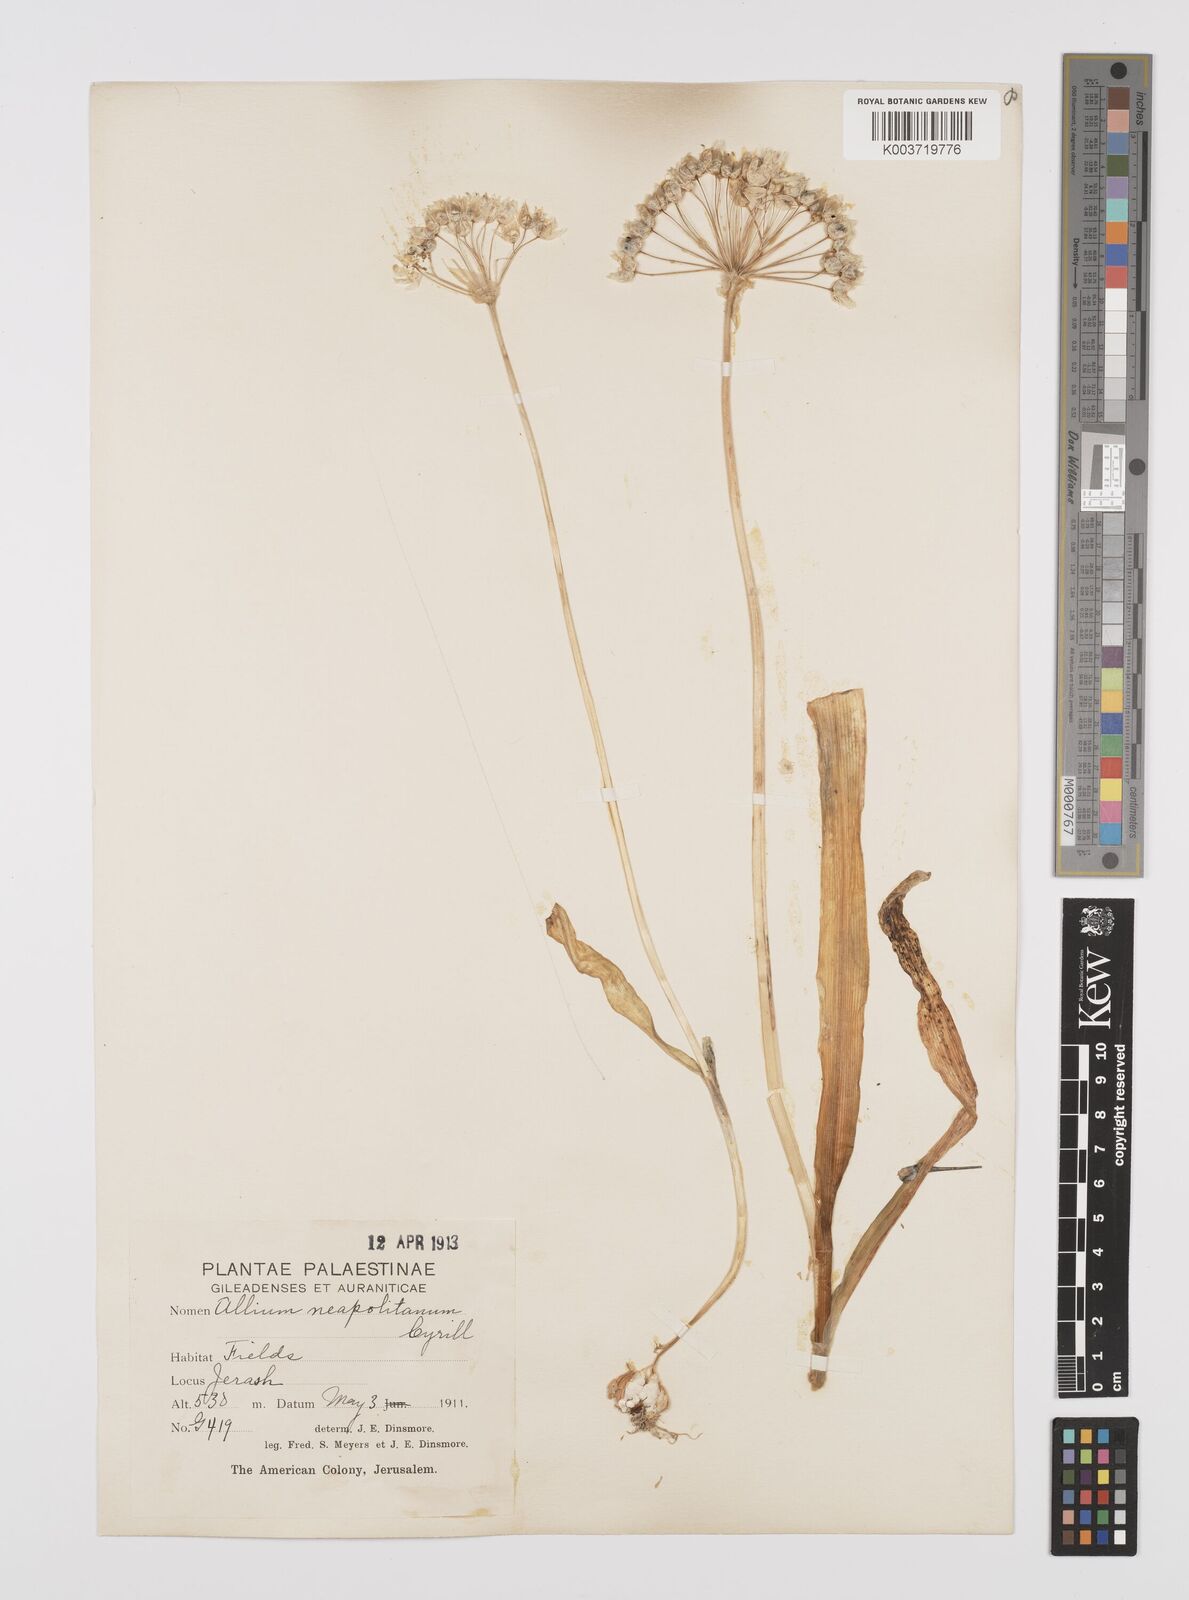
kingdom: Plantae
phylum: Tracheophyta
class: Liliopsida
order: Asparagales
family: Amaryllidaceae
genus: Allium
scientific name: Allium neapolitanum
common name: Neapolitan garlic
